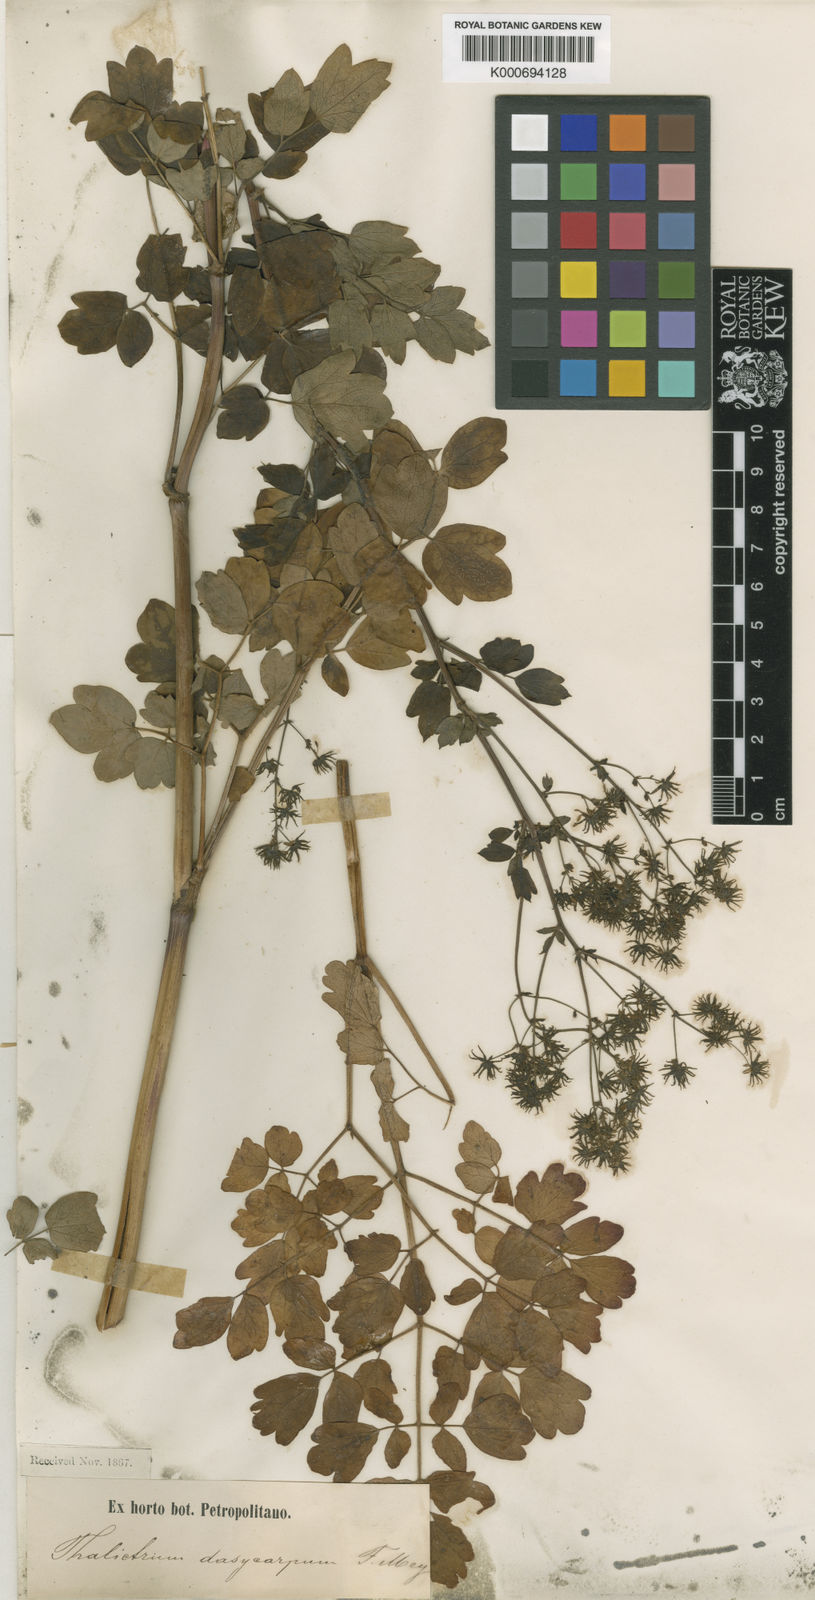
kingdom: Plantae
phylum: Tracheophyta
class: Magnoliopsida
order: Ranunculales
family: Ranunculaceae
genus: Thalictrum
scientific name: Thalictrum
